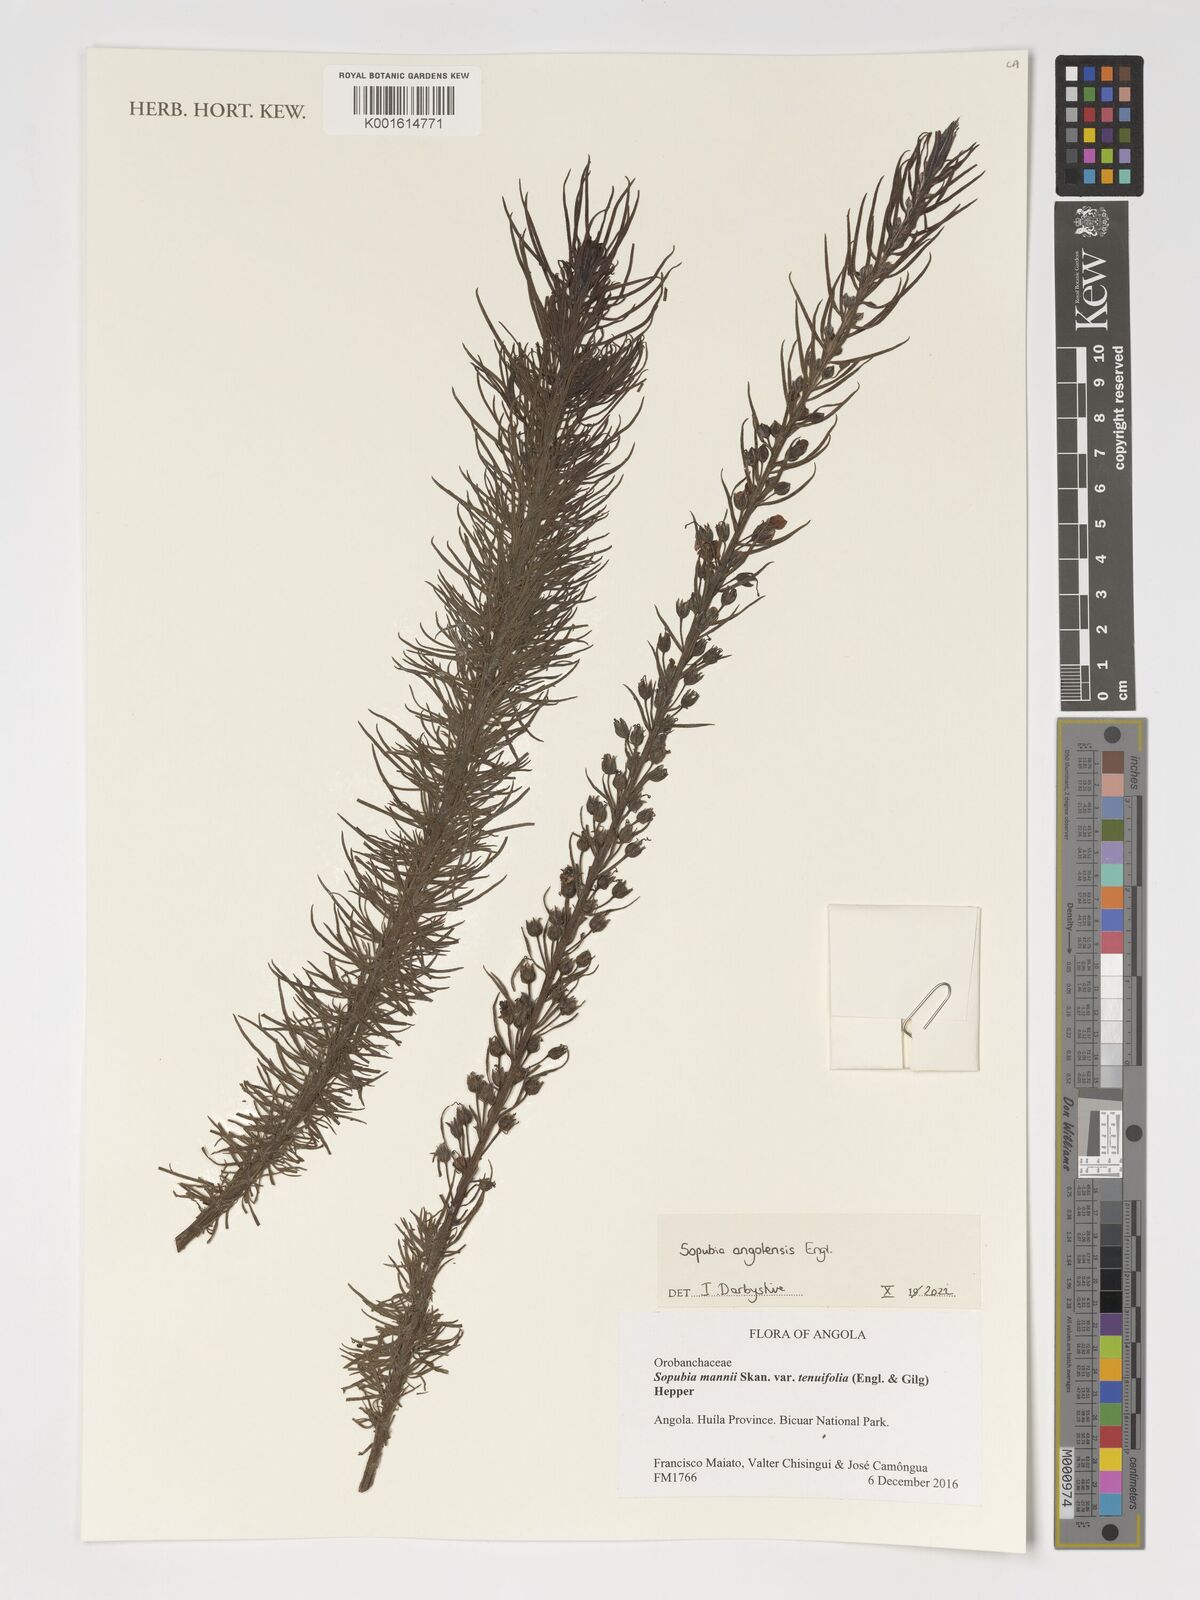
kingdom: Plantae
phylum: Tracheophyta
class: Magnoliopsida
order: Lamiales
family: Orobanchaceae
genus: Sopubia
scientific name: Sopubia cana
